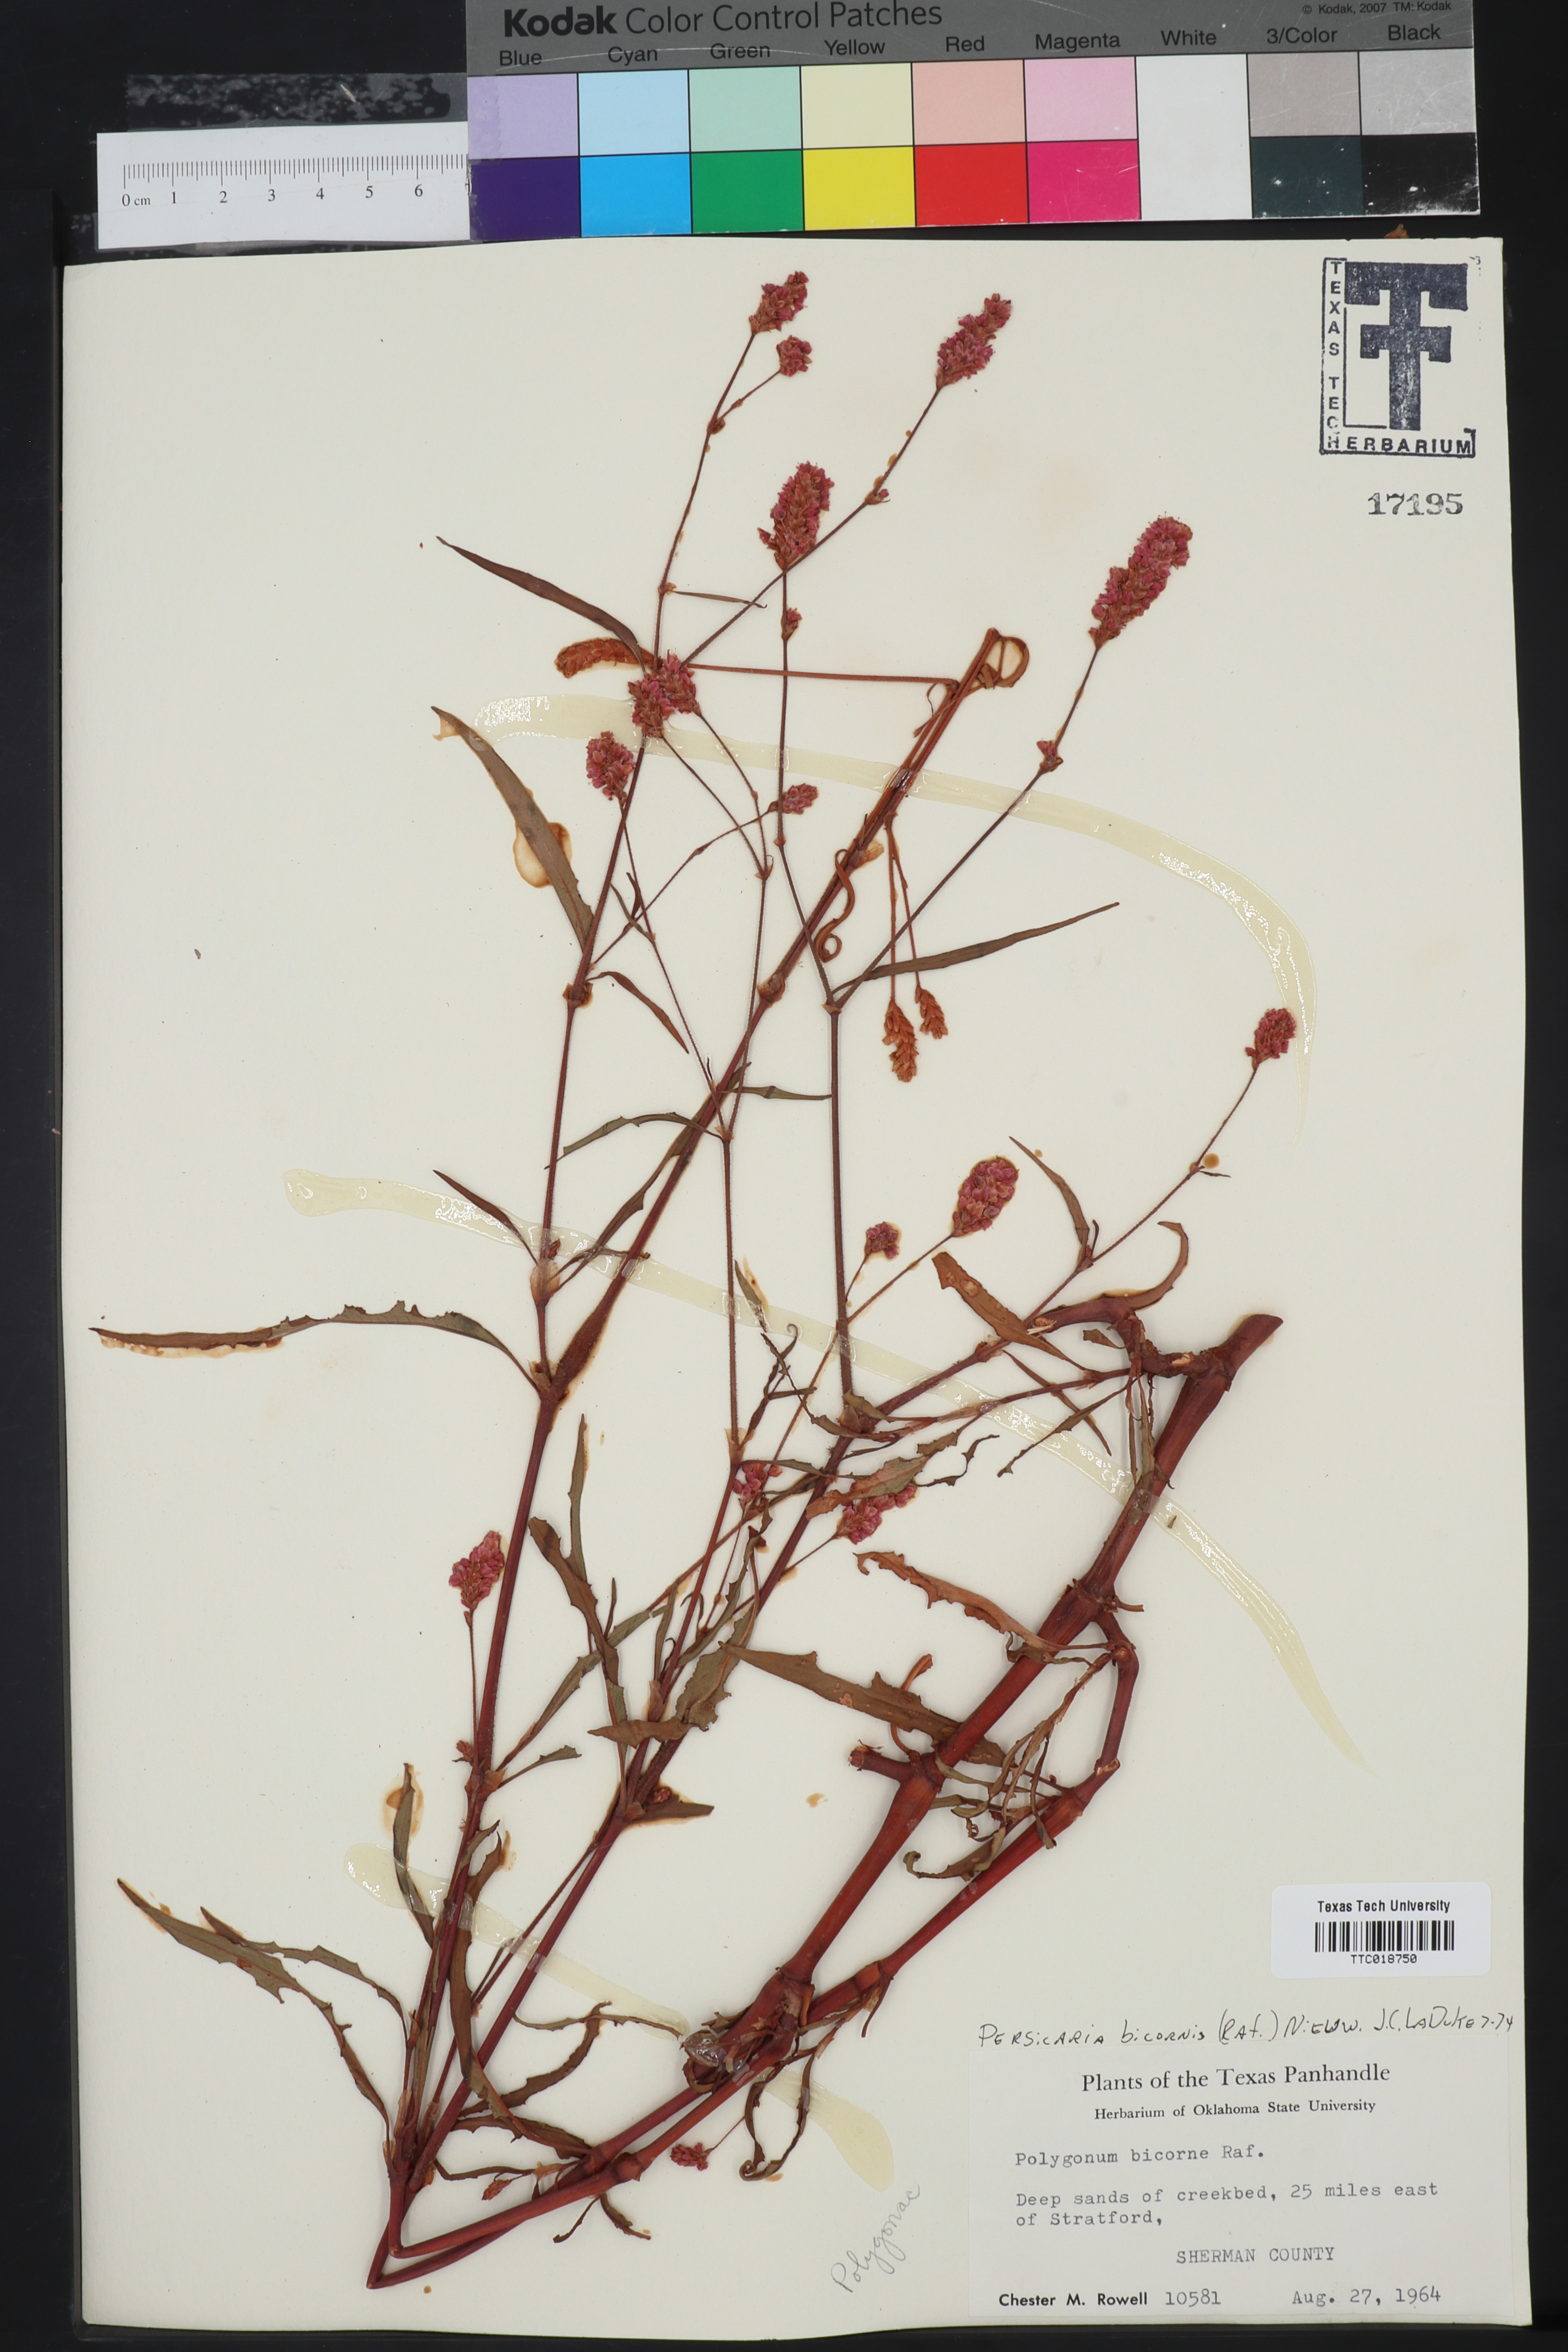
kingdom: Plantae
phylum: Tracheophyta
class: Magnoliopsida
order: Caryophyllales
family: Polygonaceae
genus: Persicaria
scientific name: Persicaria bicornis
